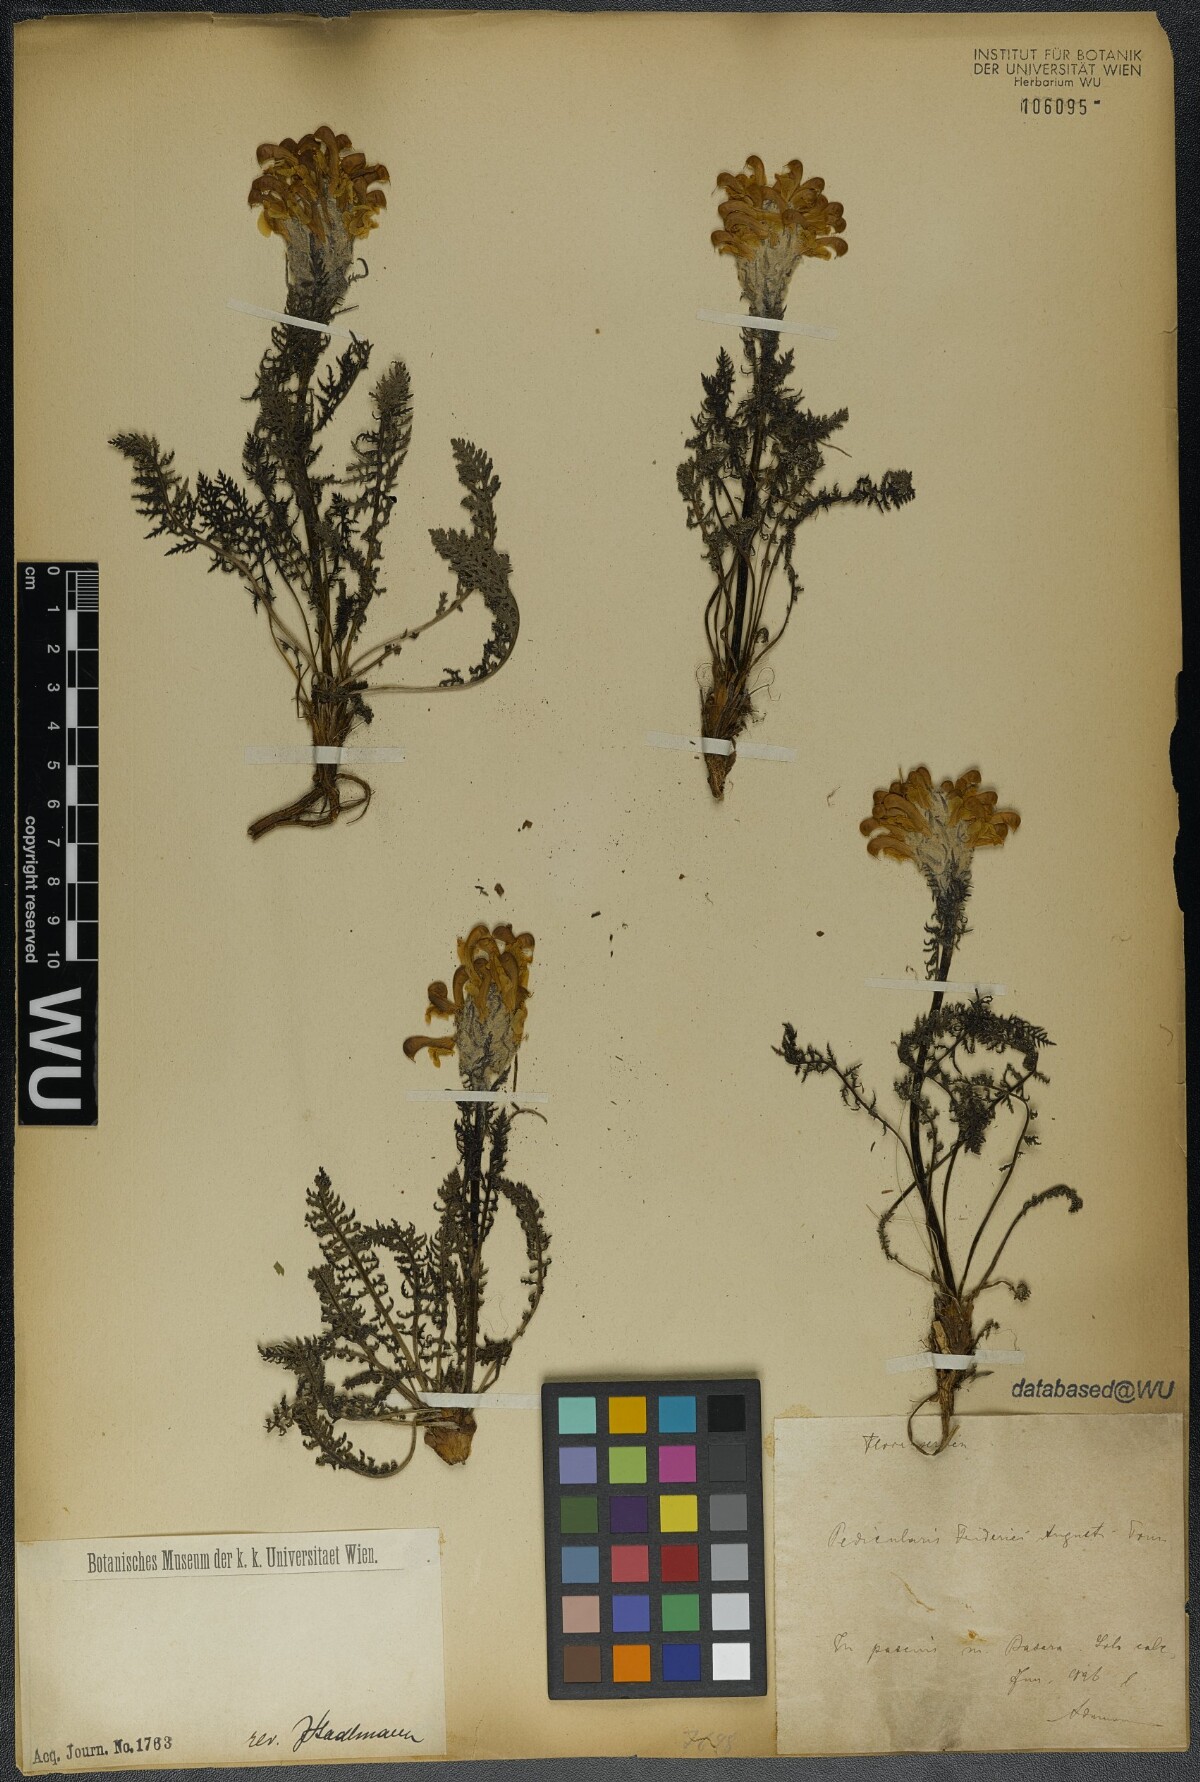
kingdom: Plantae
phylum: Tracheophyta
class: Magnoliopsida
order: Lamiales
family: Orobanchaceae
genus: Pedicularis
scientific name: Pedicularis friderici-augusti
